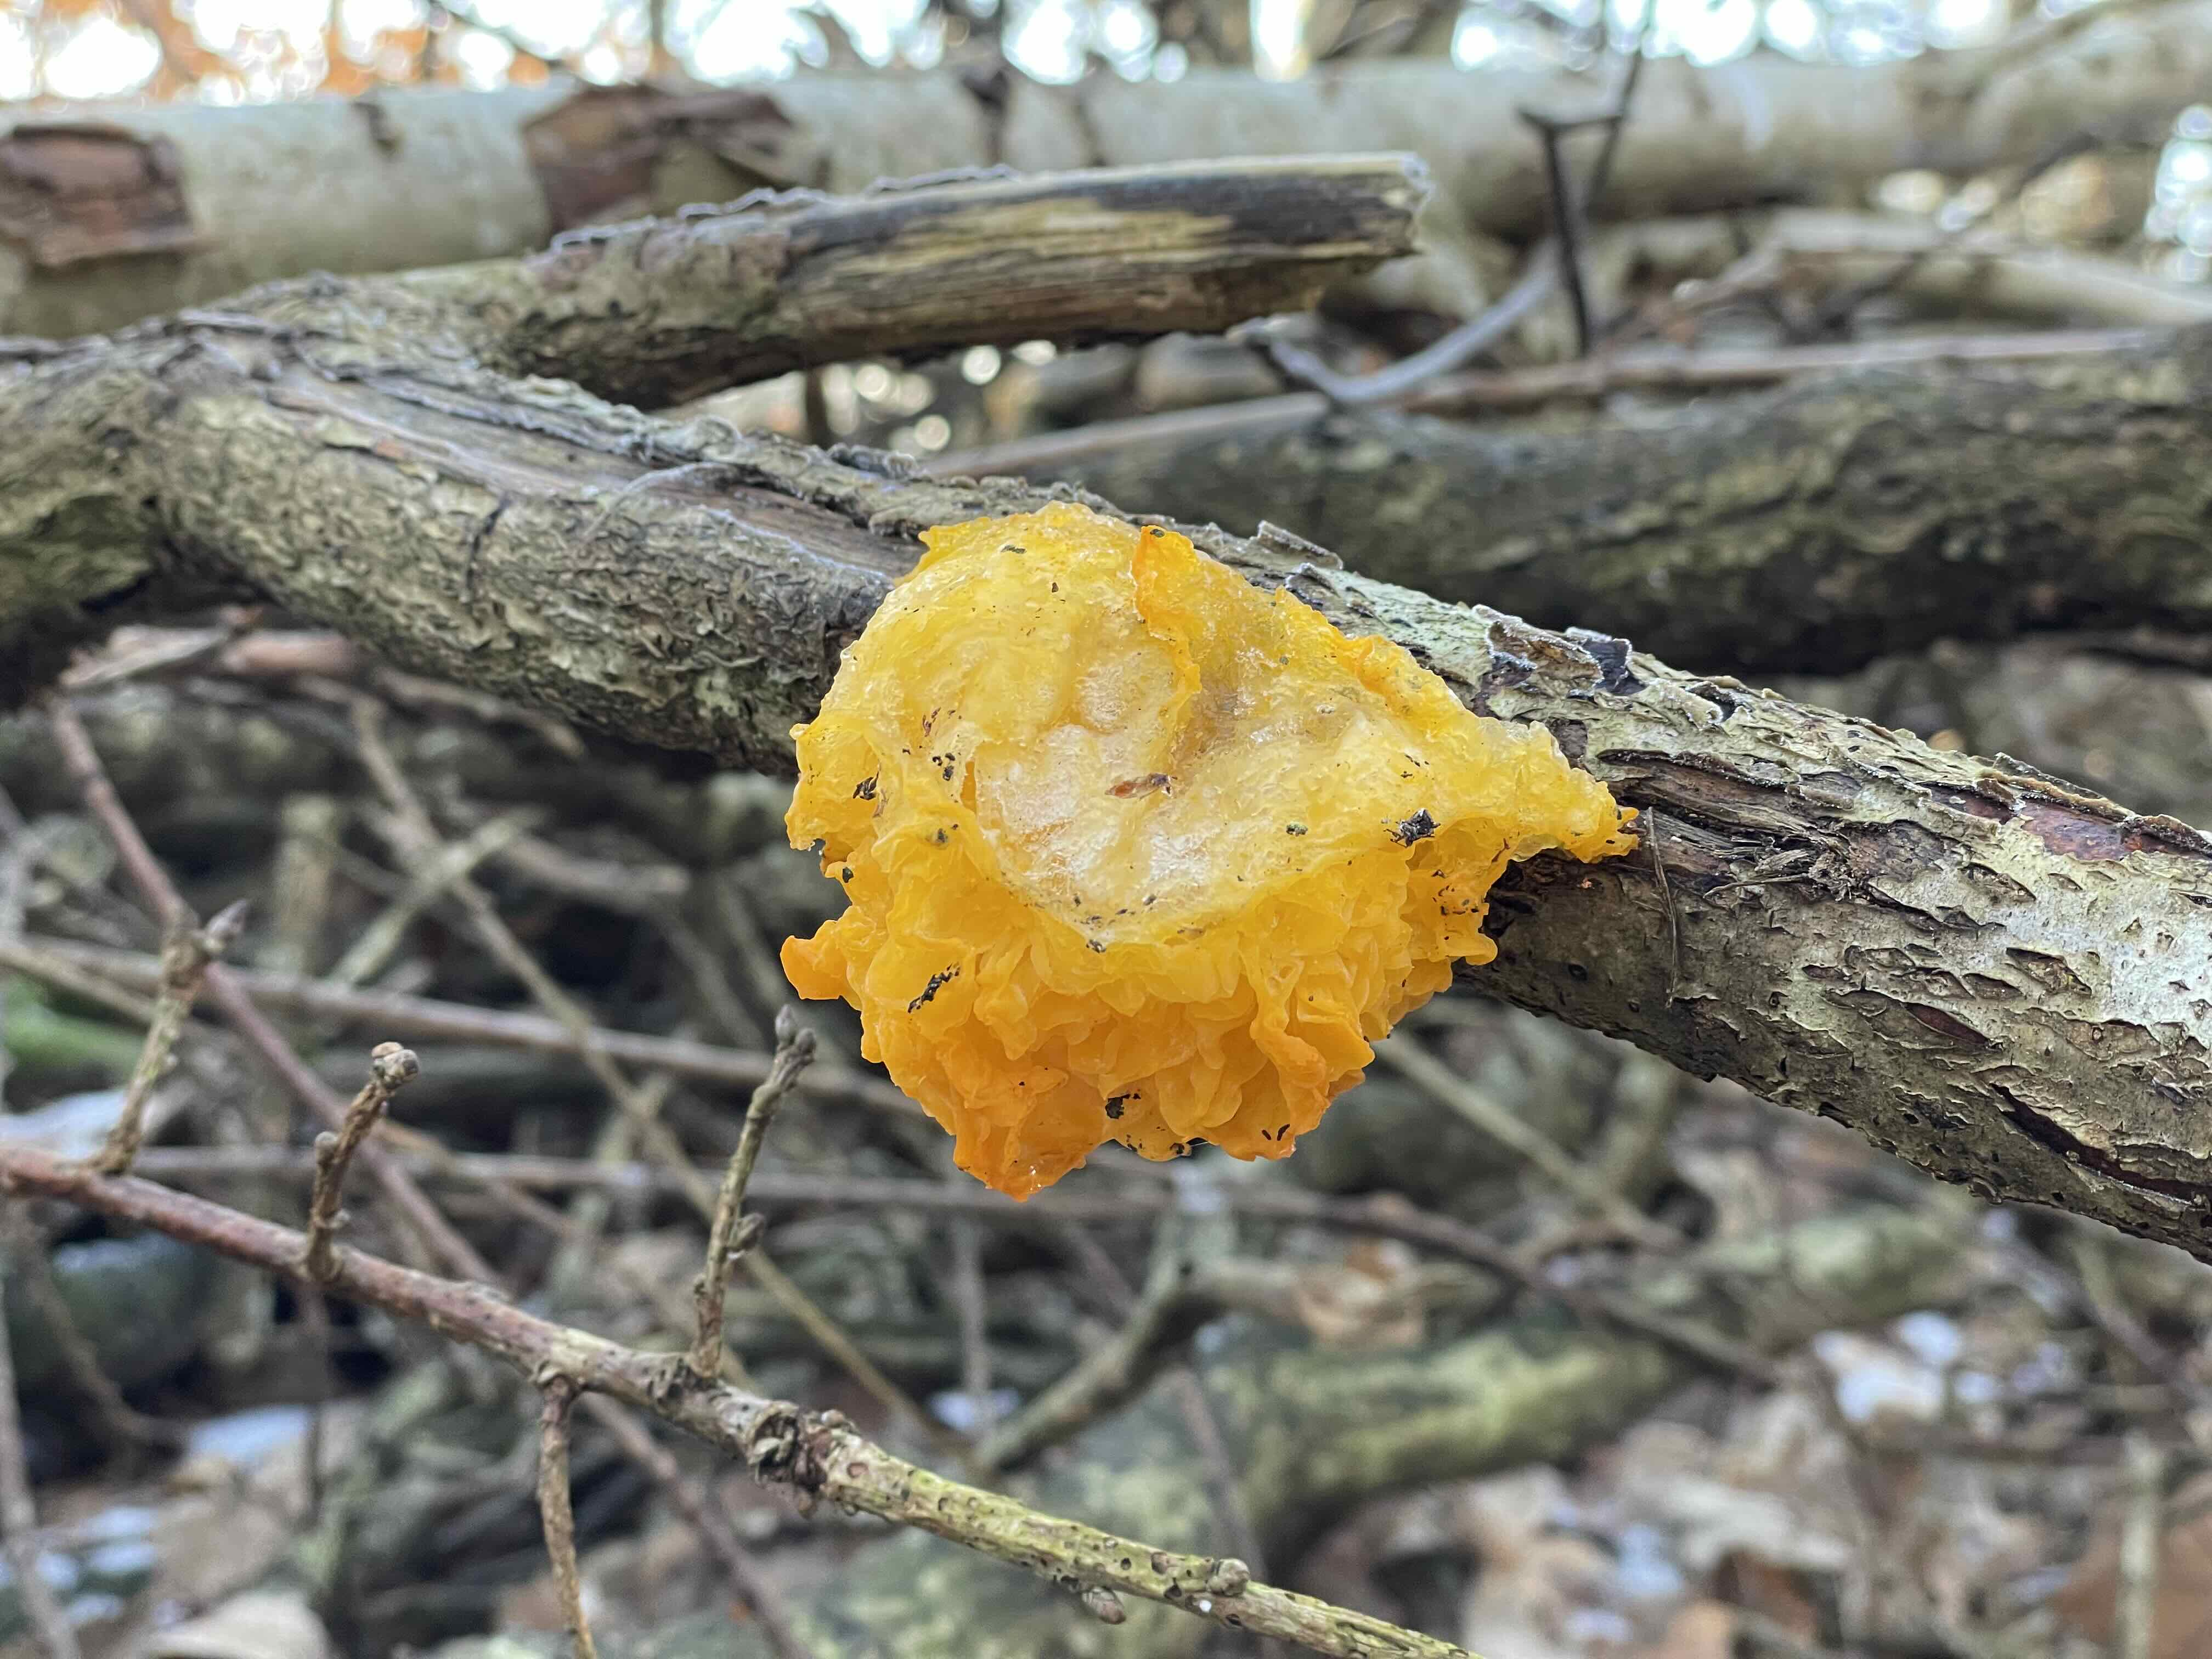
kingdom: Fungi
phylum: Basidiomycota
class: Tremellomycetes
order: Tremellales
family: Tremellaceae
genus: Tremella
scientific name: Tremella mesenterica
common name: gul bævresvamp
